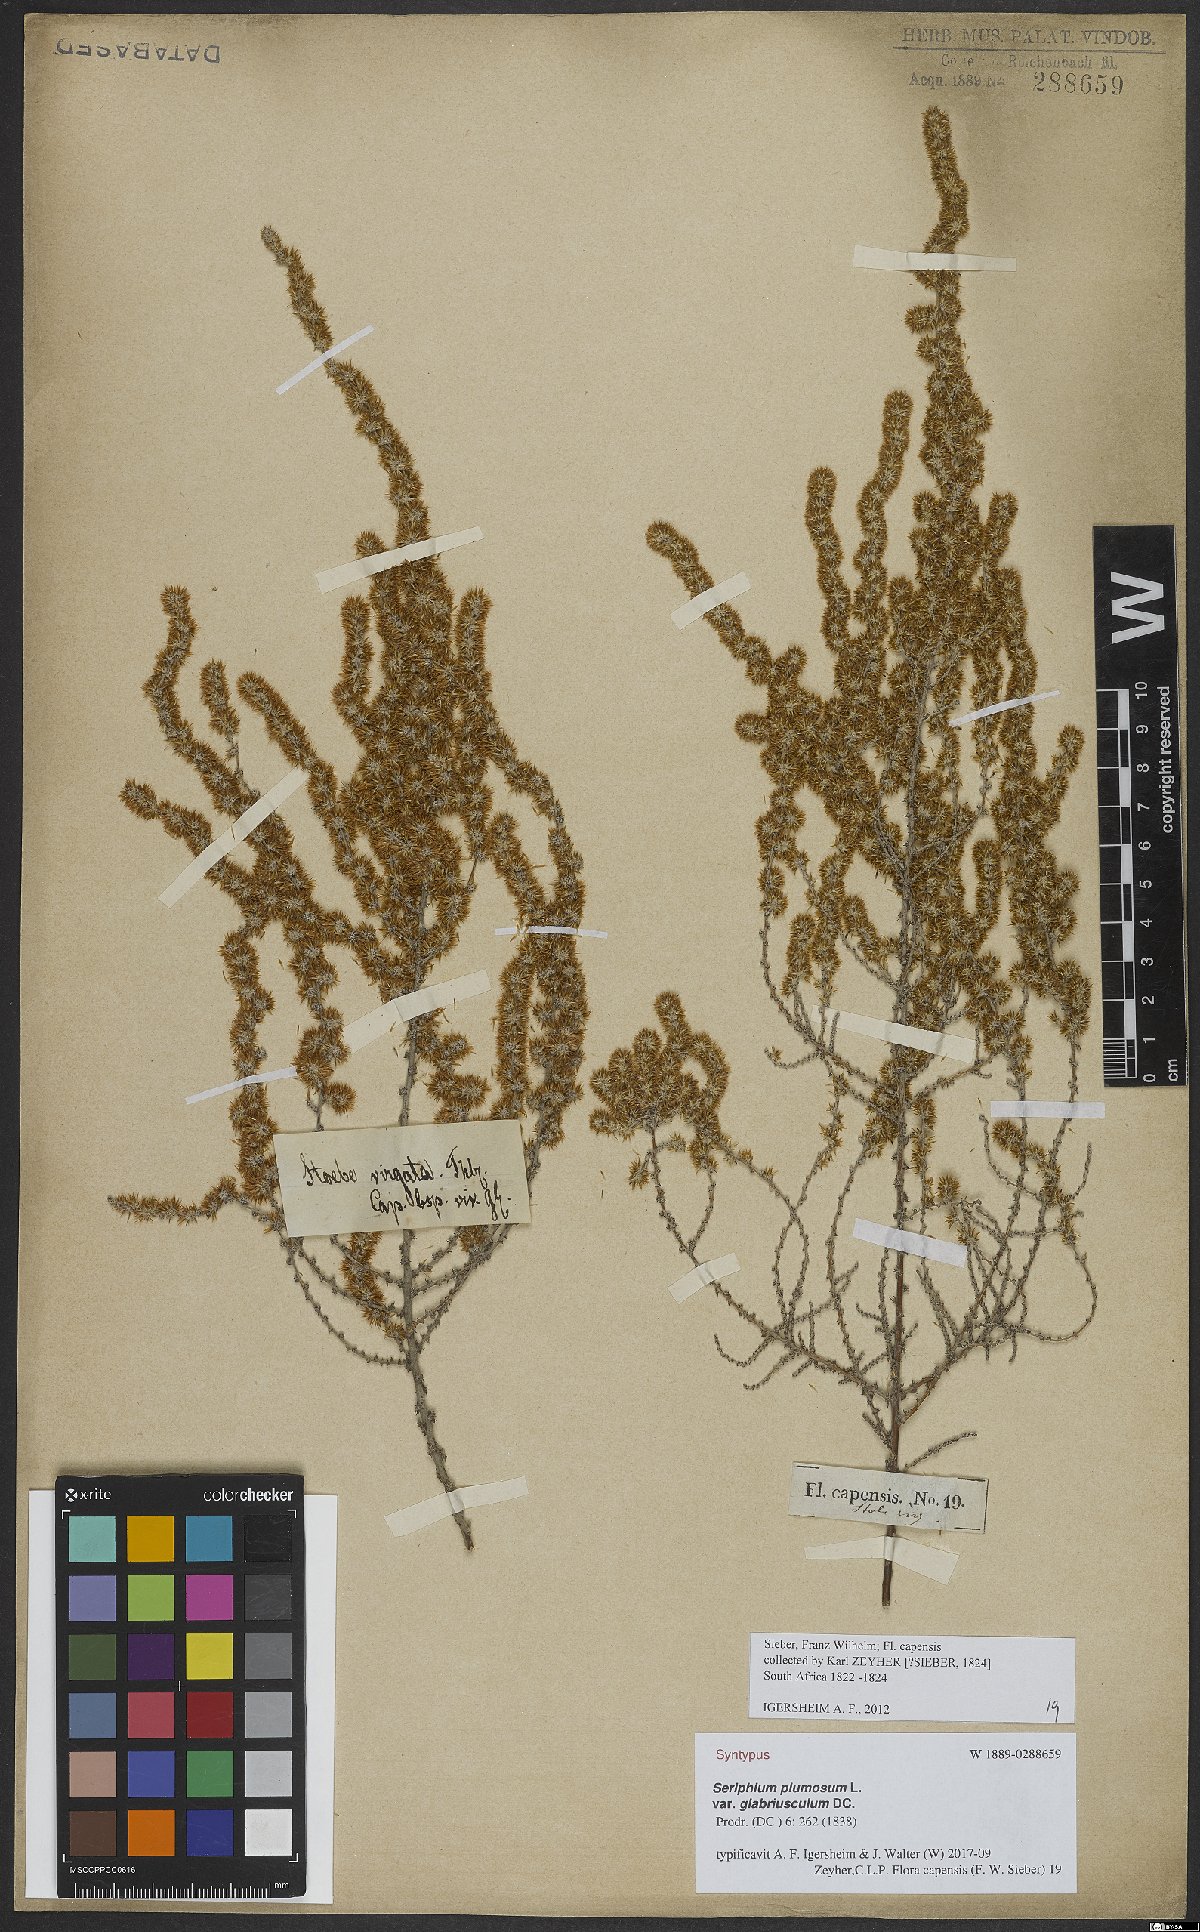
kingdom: Plantae
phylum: Tracheophyta
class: Magnoliopsida
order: Asterales
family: Asteraceae
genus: Seriphium
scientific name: Seriphium plumosum
